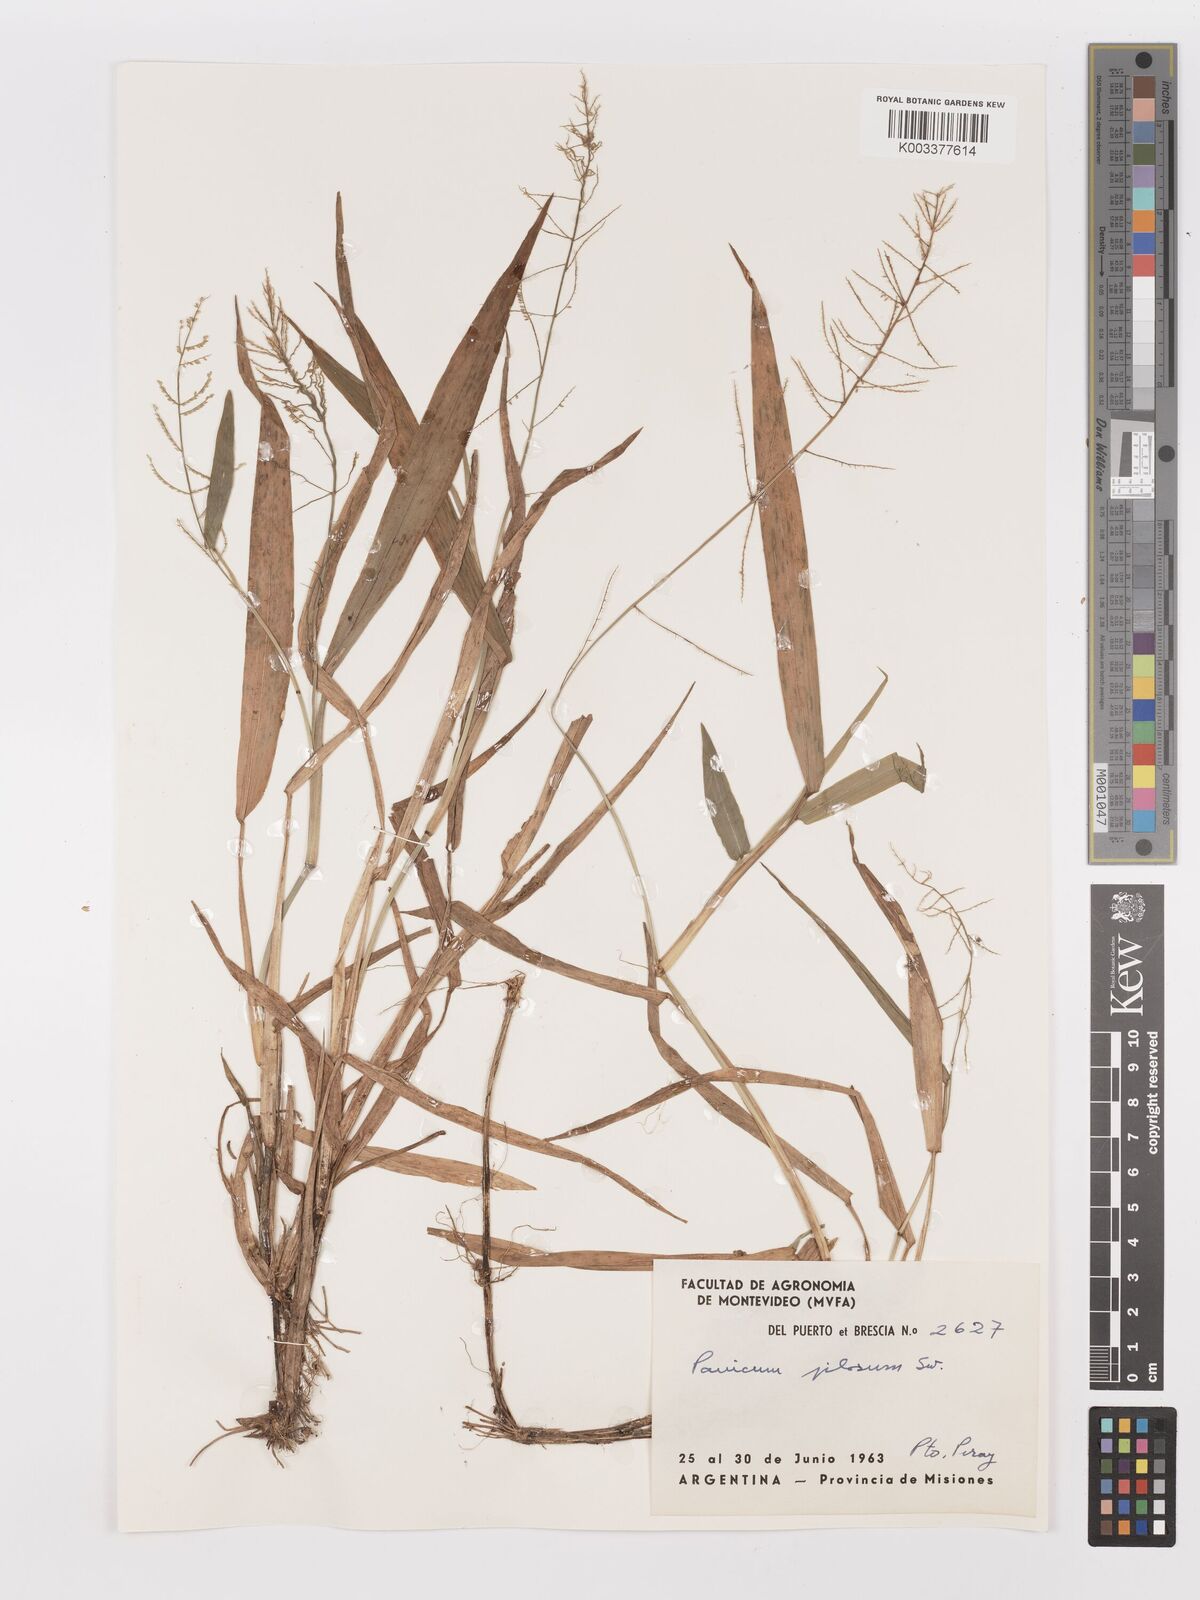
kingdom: Plantae
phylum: Tracheophyta
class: Liliopsida
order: Poales
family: Poaceae
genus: Panicum
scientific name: Panicum
